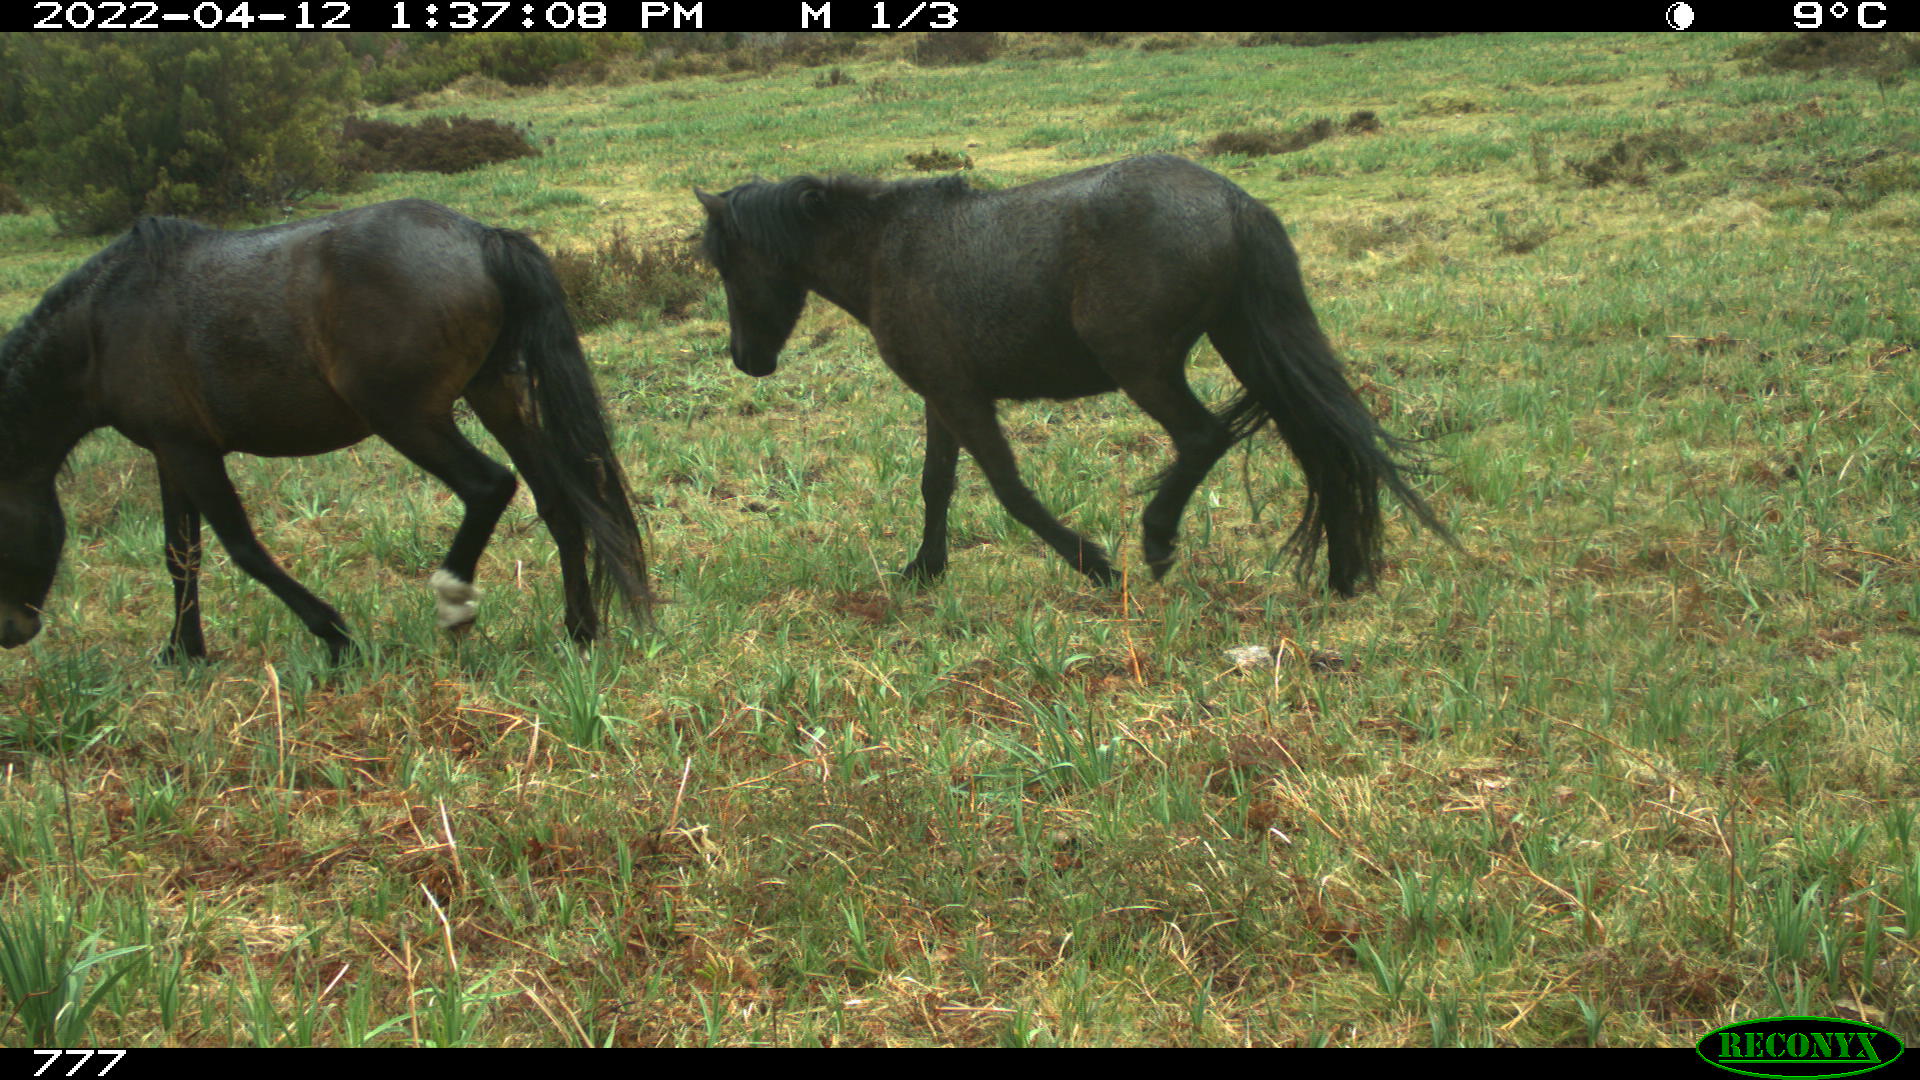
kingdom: Animalia
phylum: Chordata
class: Mammalia
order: Perissodactyla
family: Equidae
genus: Equus
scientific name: Equus caballus
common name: Horse
